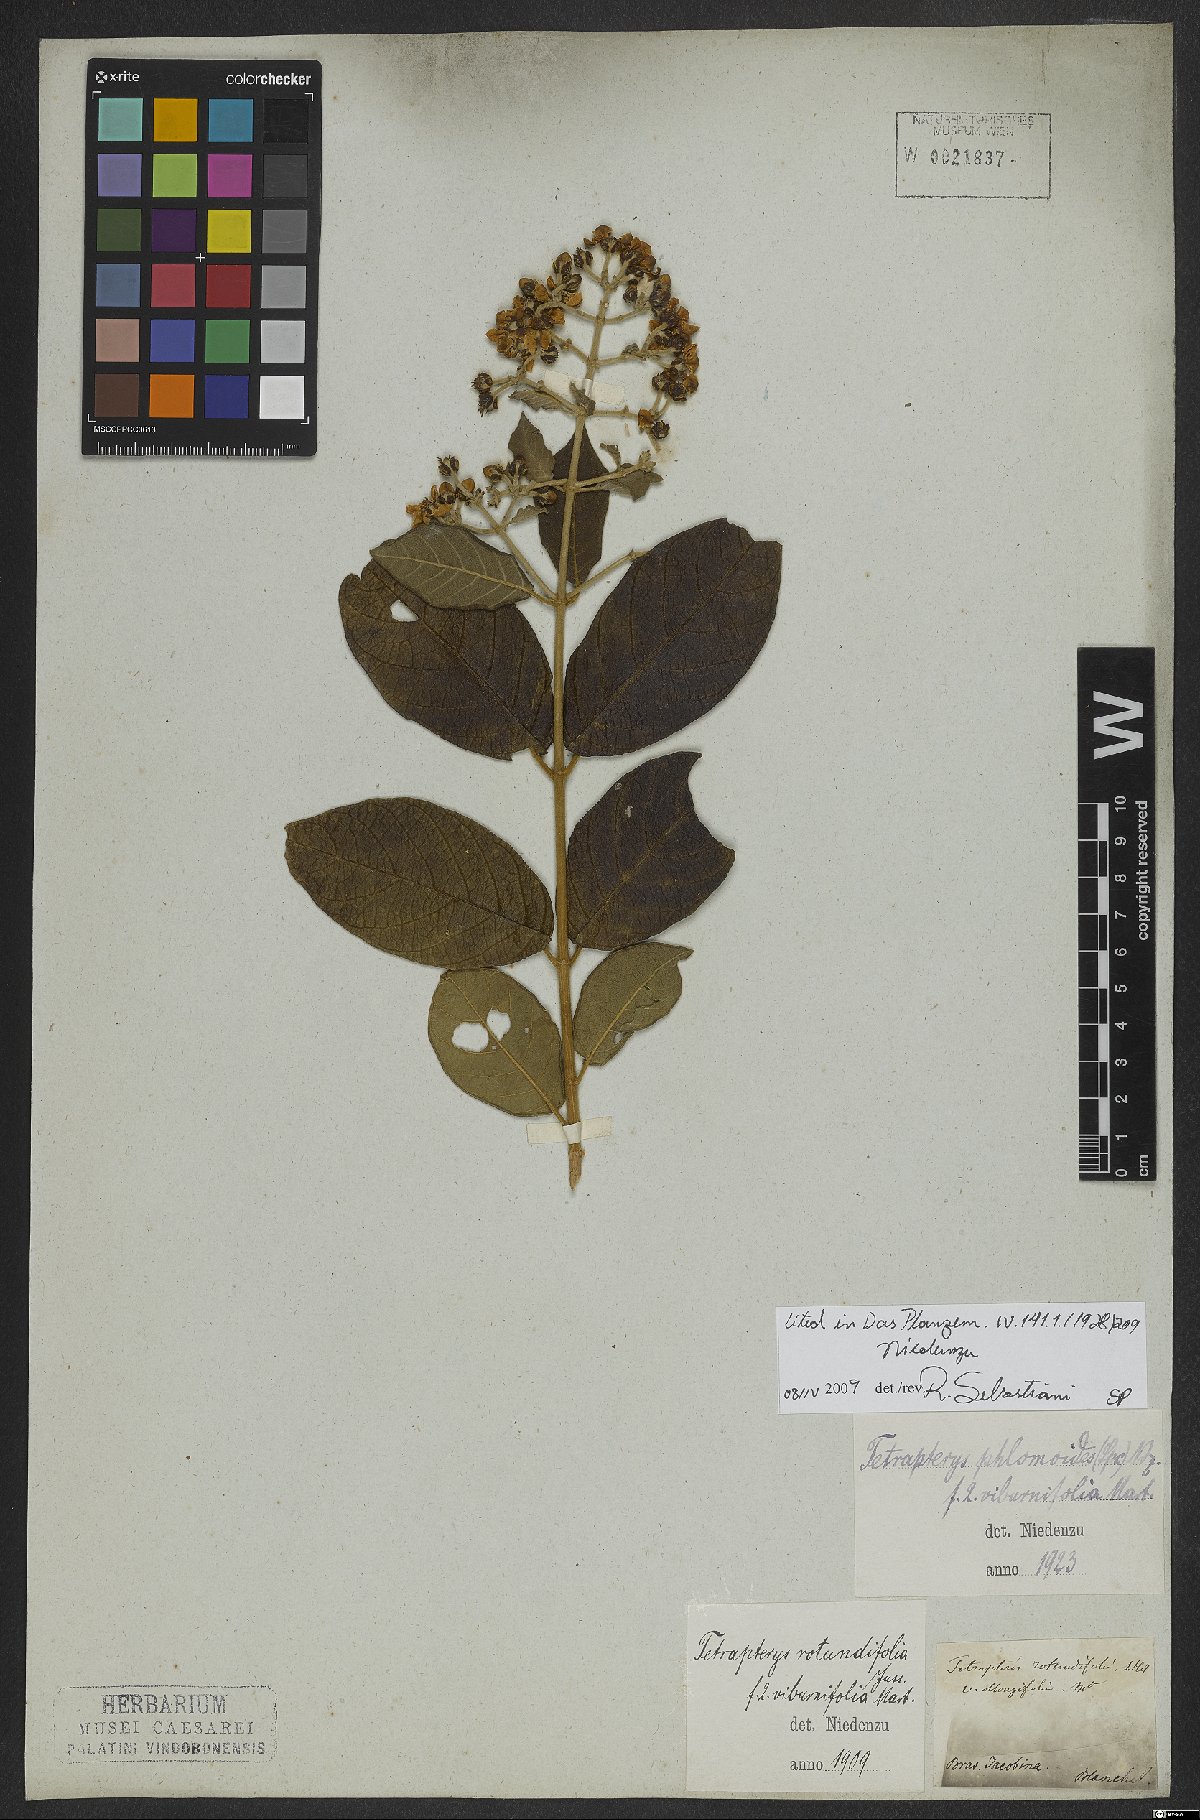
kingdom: Plantae
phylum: Tracheophyta
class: Magnoliopsida
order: Malpighiales
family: Malpighiaceae
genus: Tetrapterys
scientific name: Tetrapterys phlomoides
